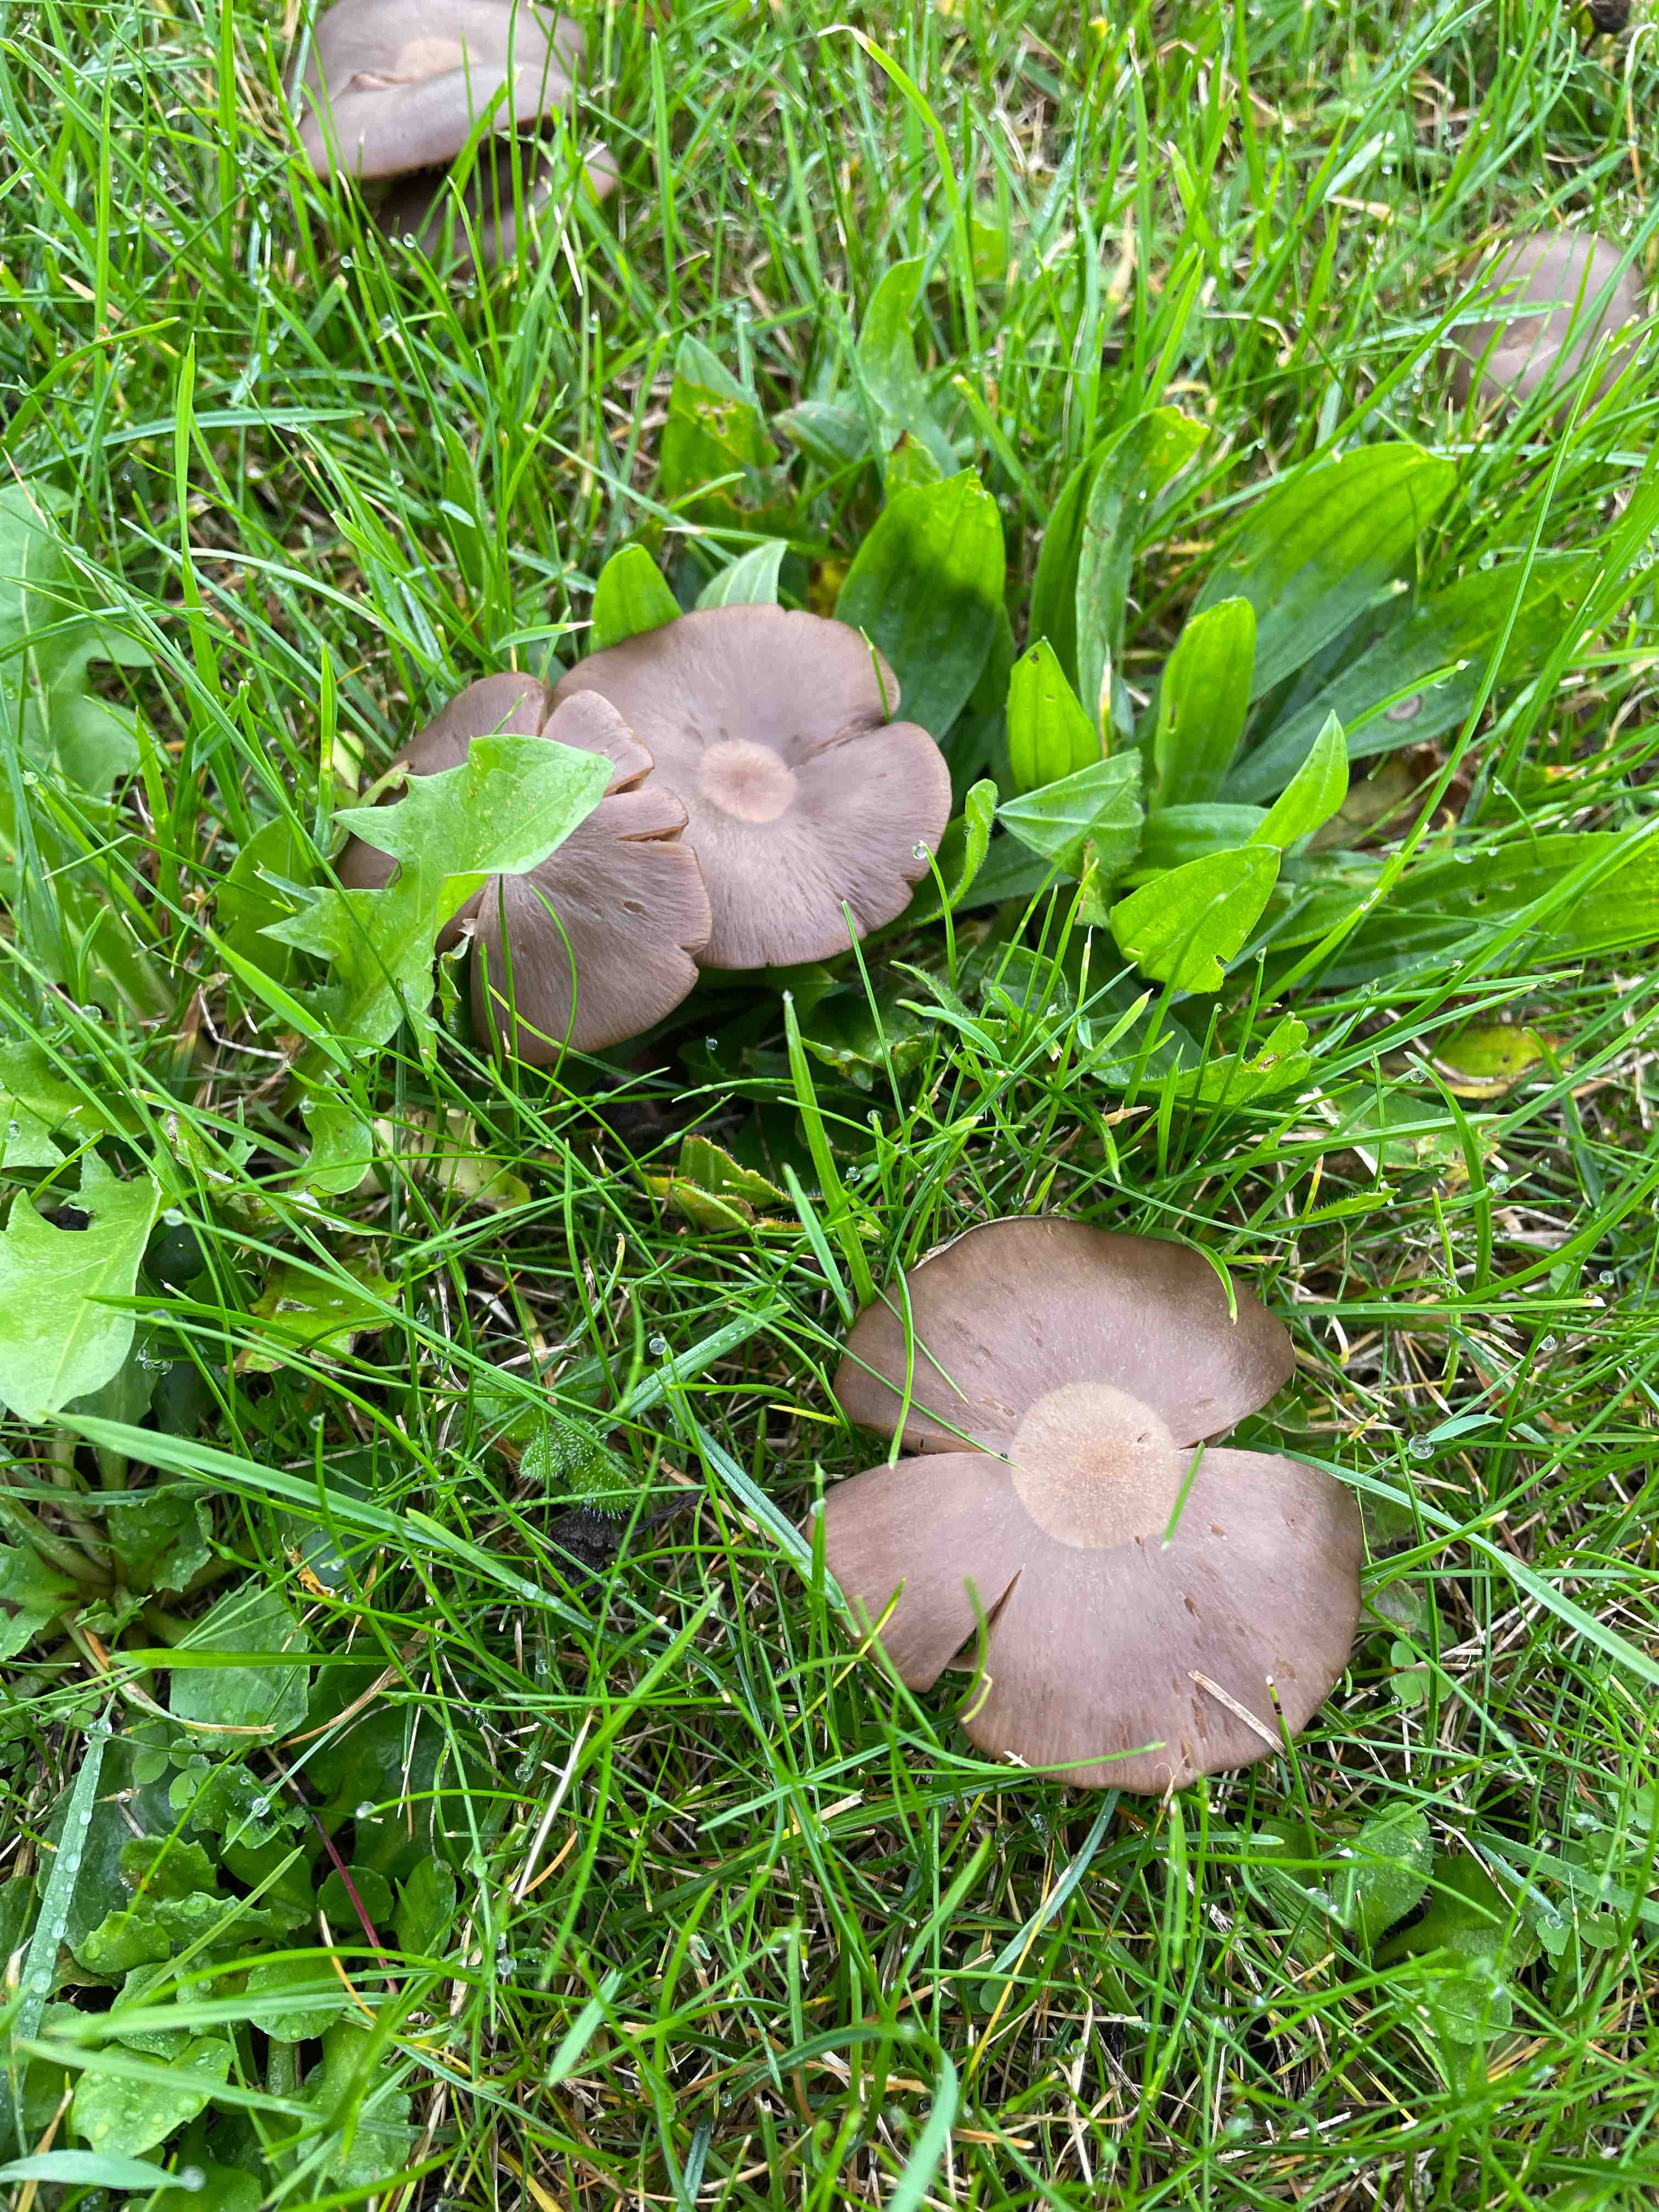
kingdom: Fungi
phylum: Basidiomycota
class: Agaricomycetes
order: Agaricales
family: Entolomataceae
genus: Entoloma
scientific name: Entoloma
